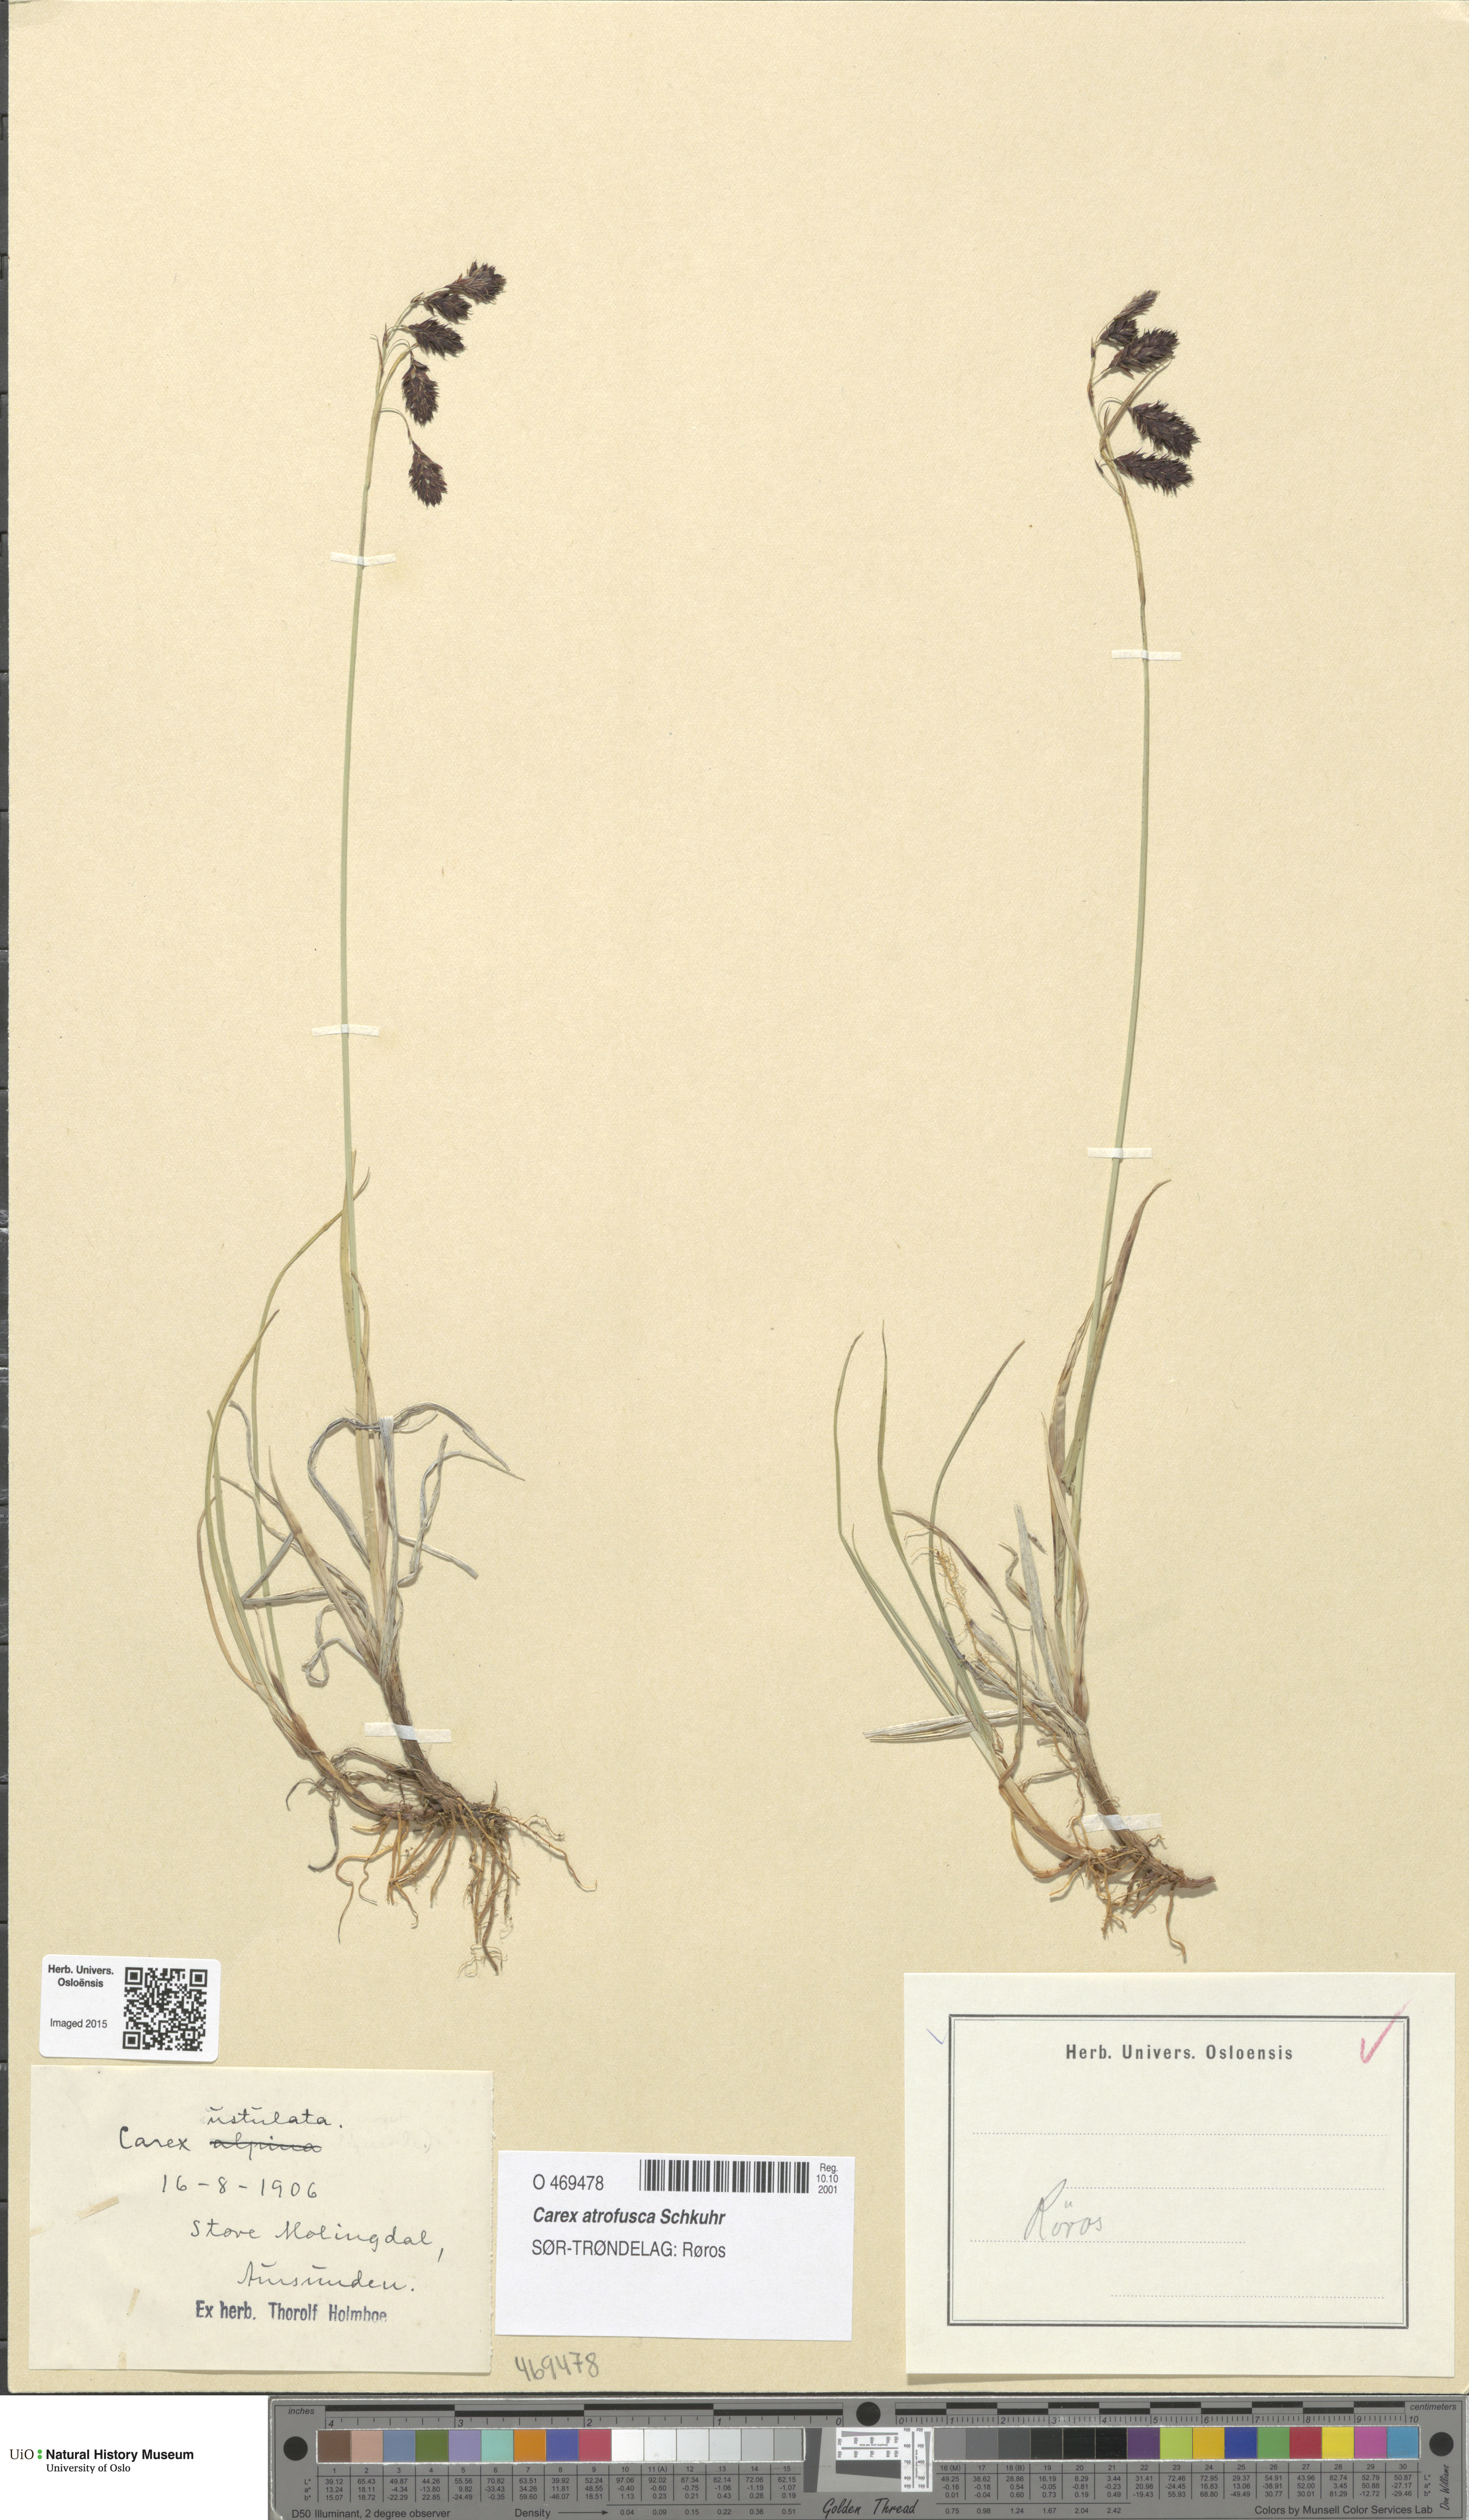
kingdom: Plantae
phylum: Tracheophyta
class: Liliopsida
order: Poales
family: Cyperaceae
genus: Carex
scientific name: Carex atrofusca
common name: Scorched alpine-sedge
